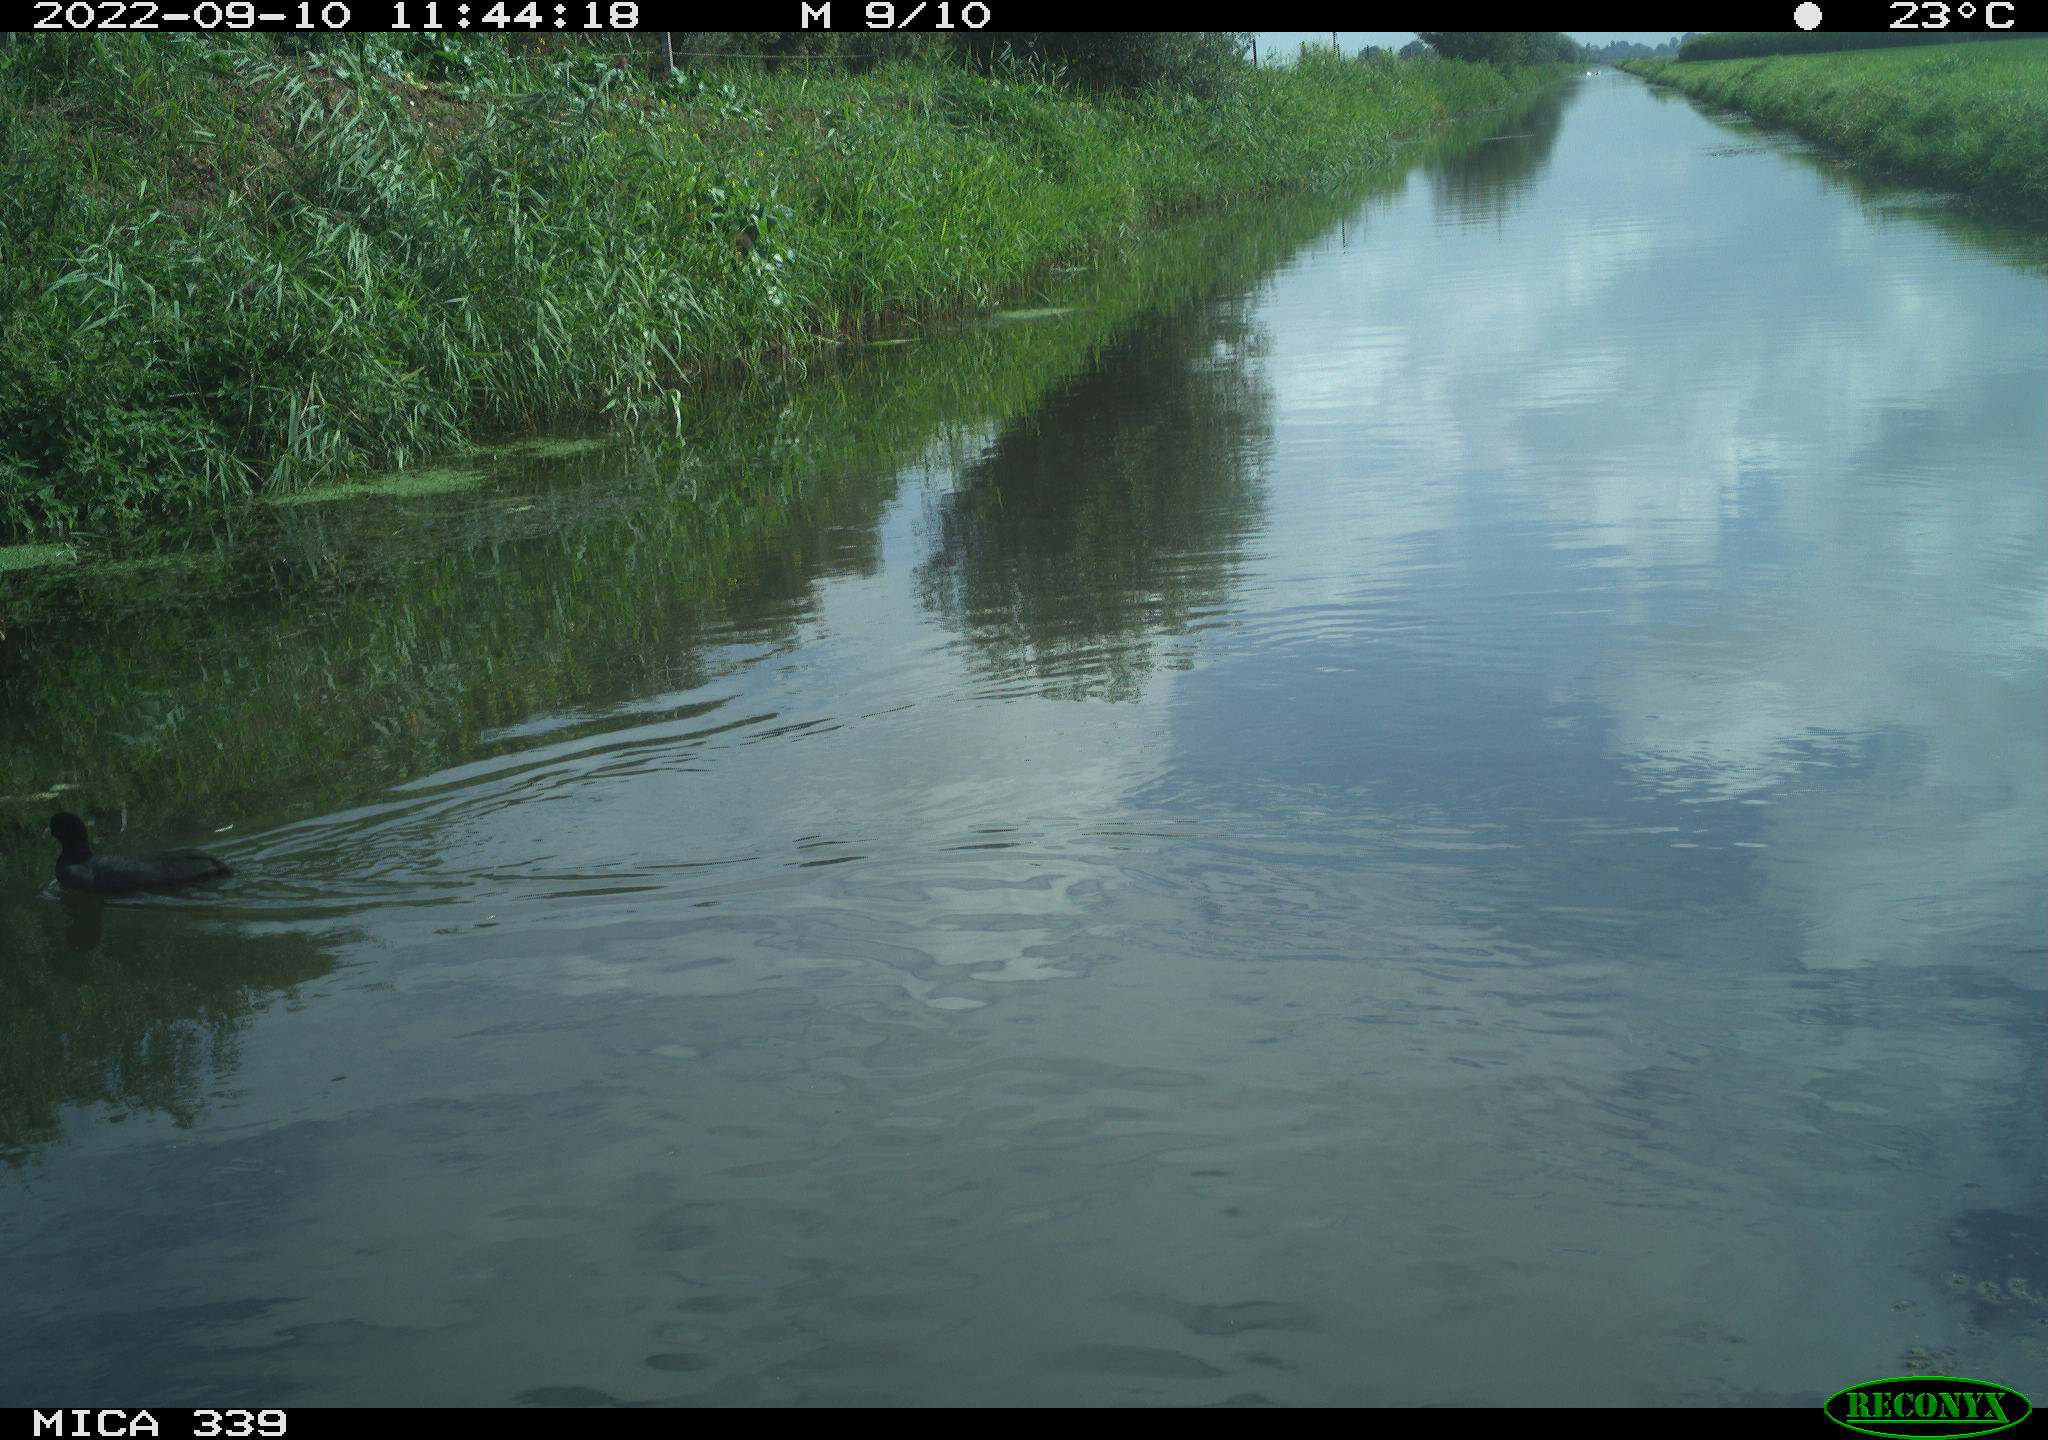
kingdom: Animalia
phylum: Chordata
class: Aves
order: Gruiformes
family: Rallidae
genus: Fulica
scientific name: Fulica atra
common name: Eurasian coot
